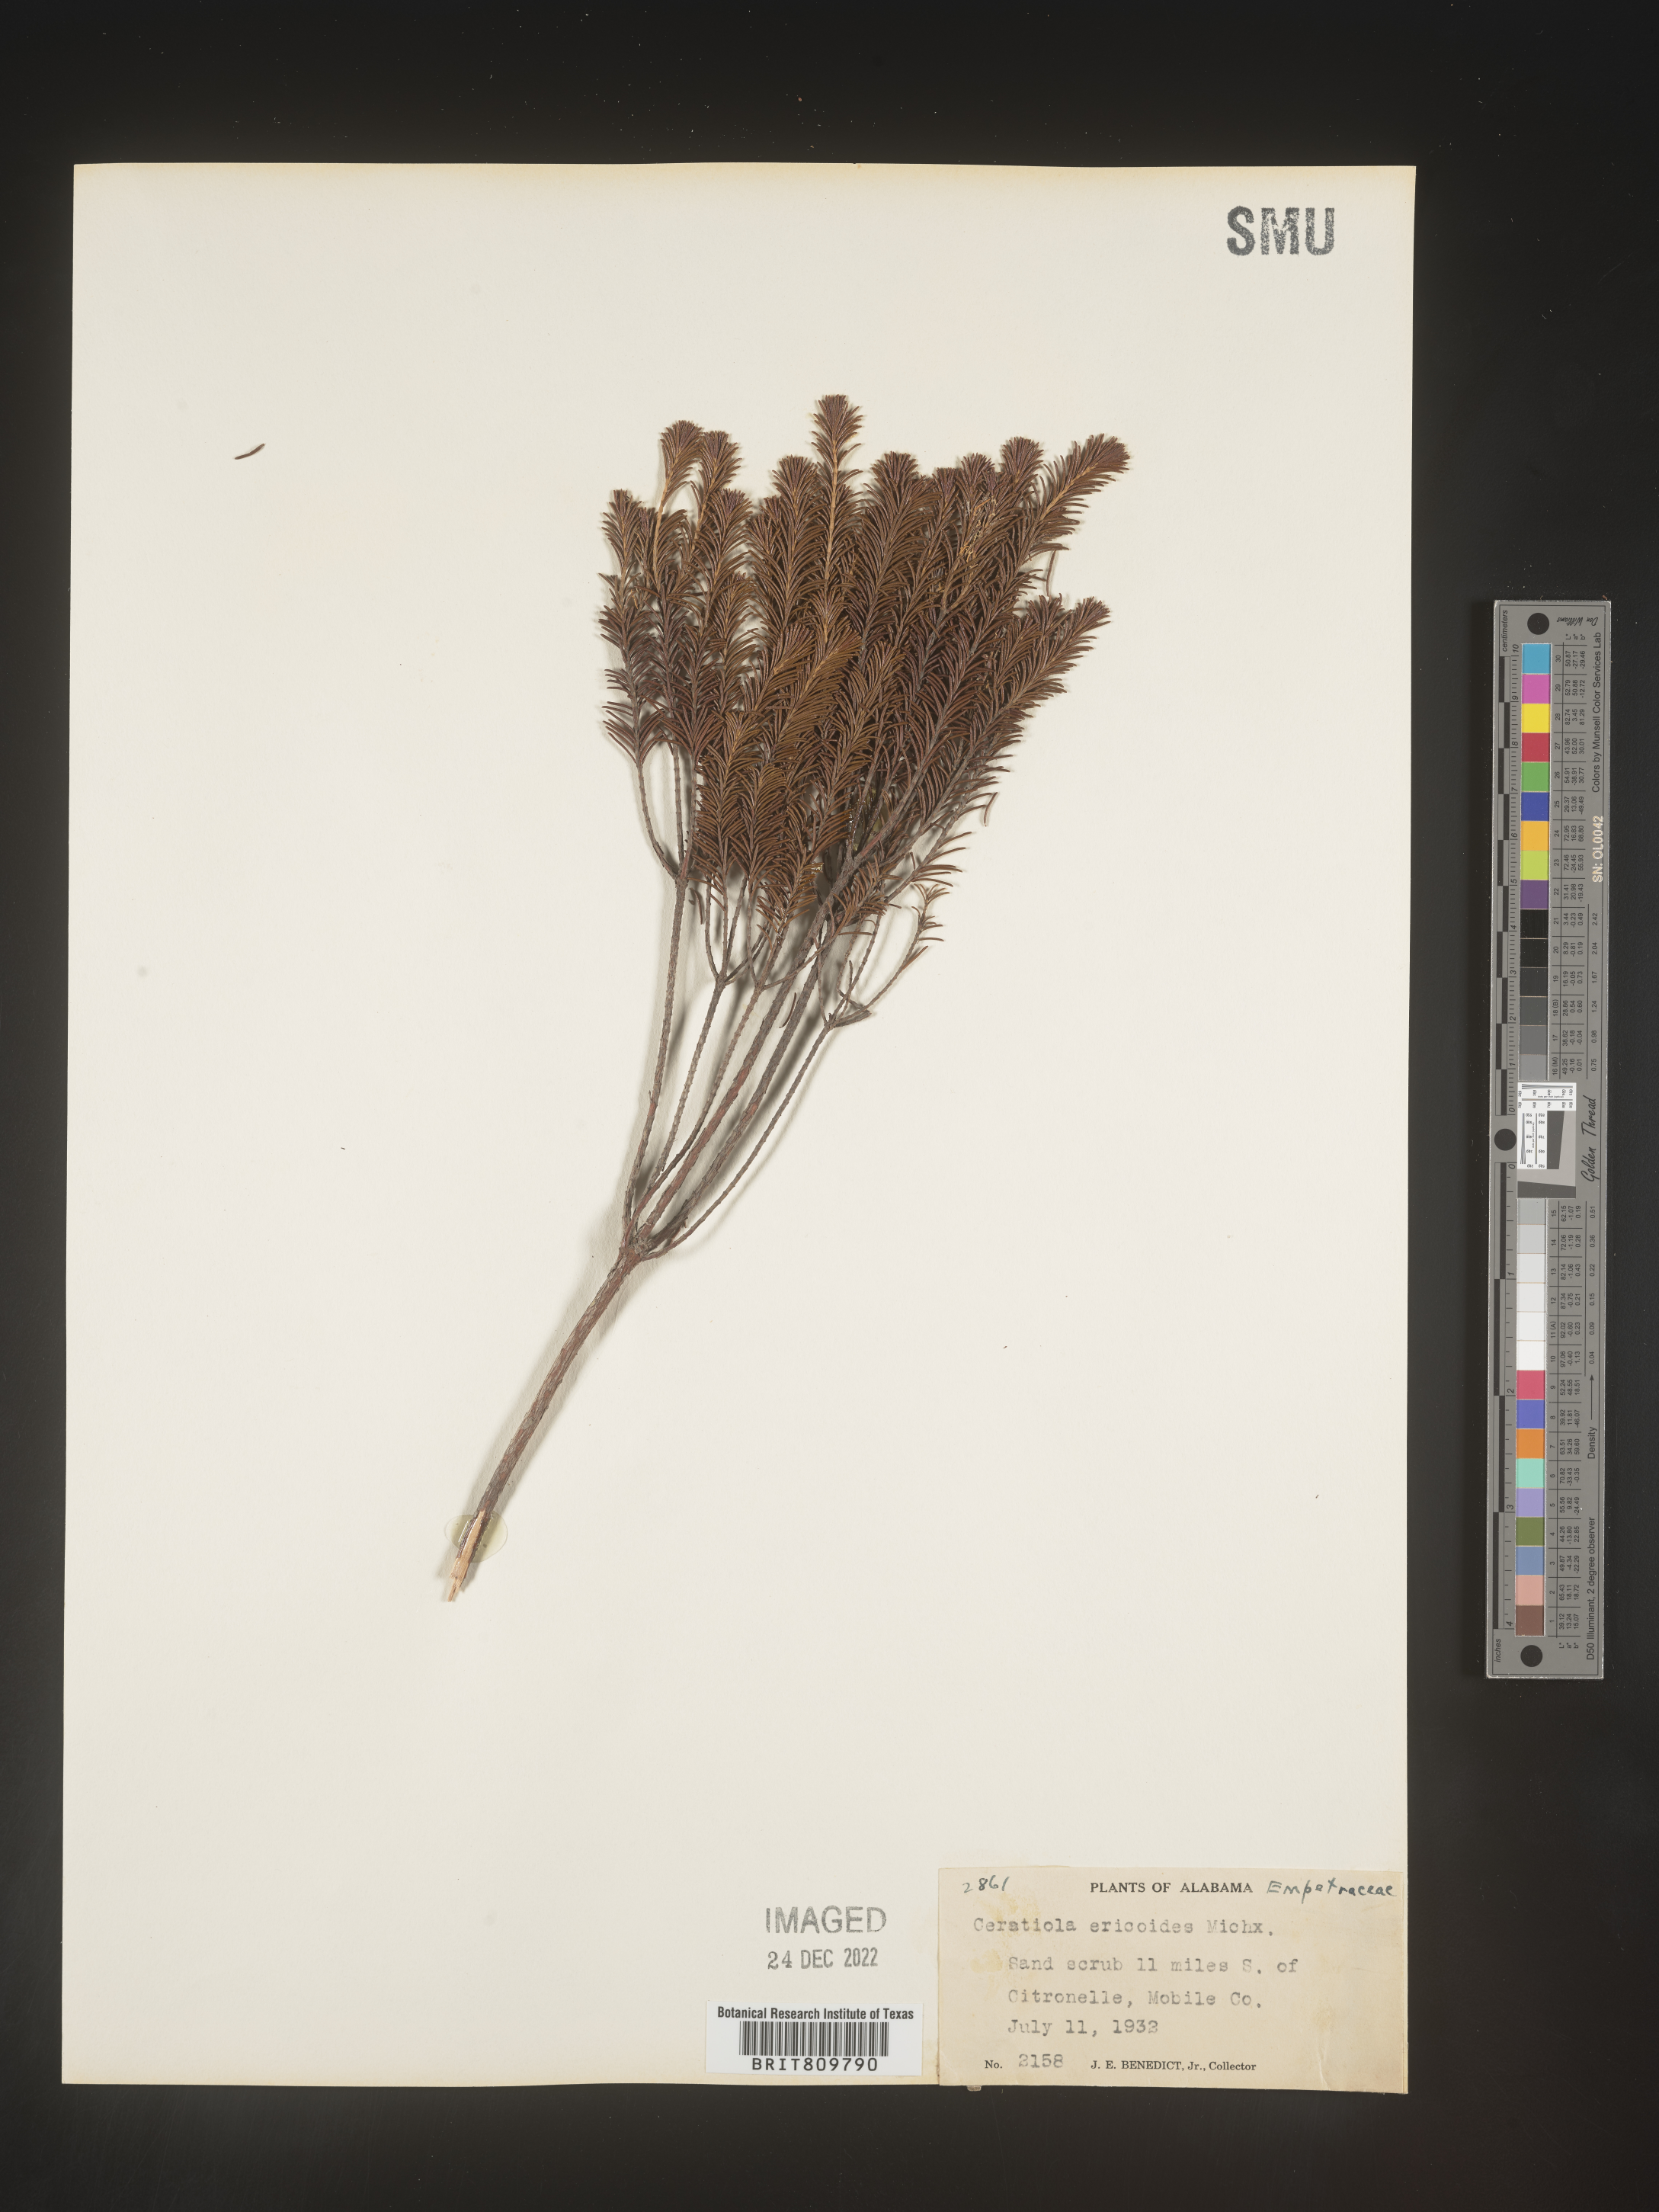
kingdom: Plantae
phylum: Tracheophyta
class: Magnoliopsida
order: Ericales
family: Ericaceae
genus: Ceratiola
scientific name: Ceratiola ericoides
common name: Sandhill-rosemary
